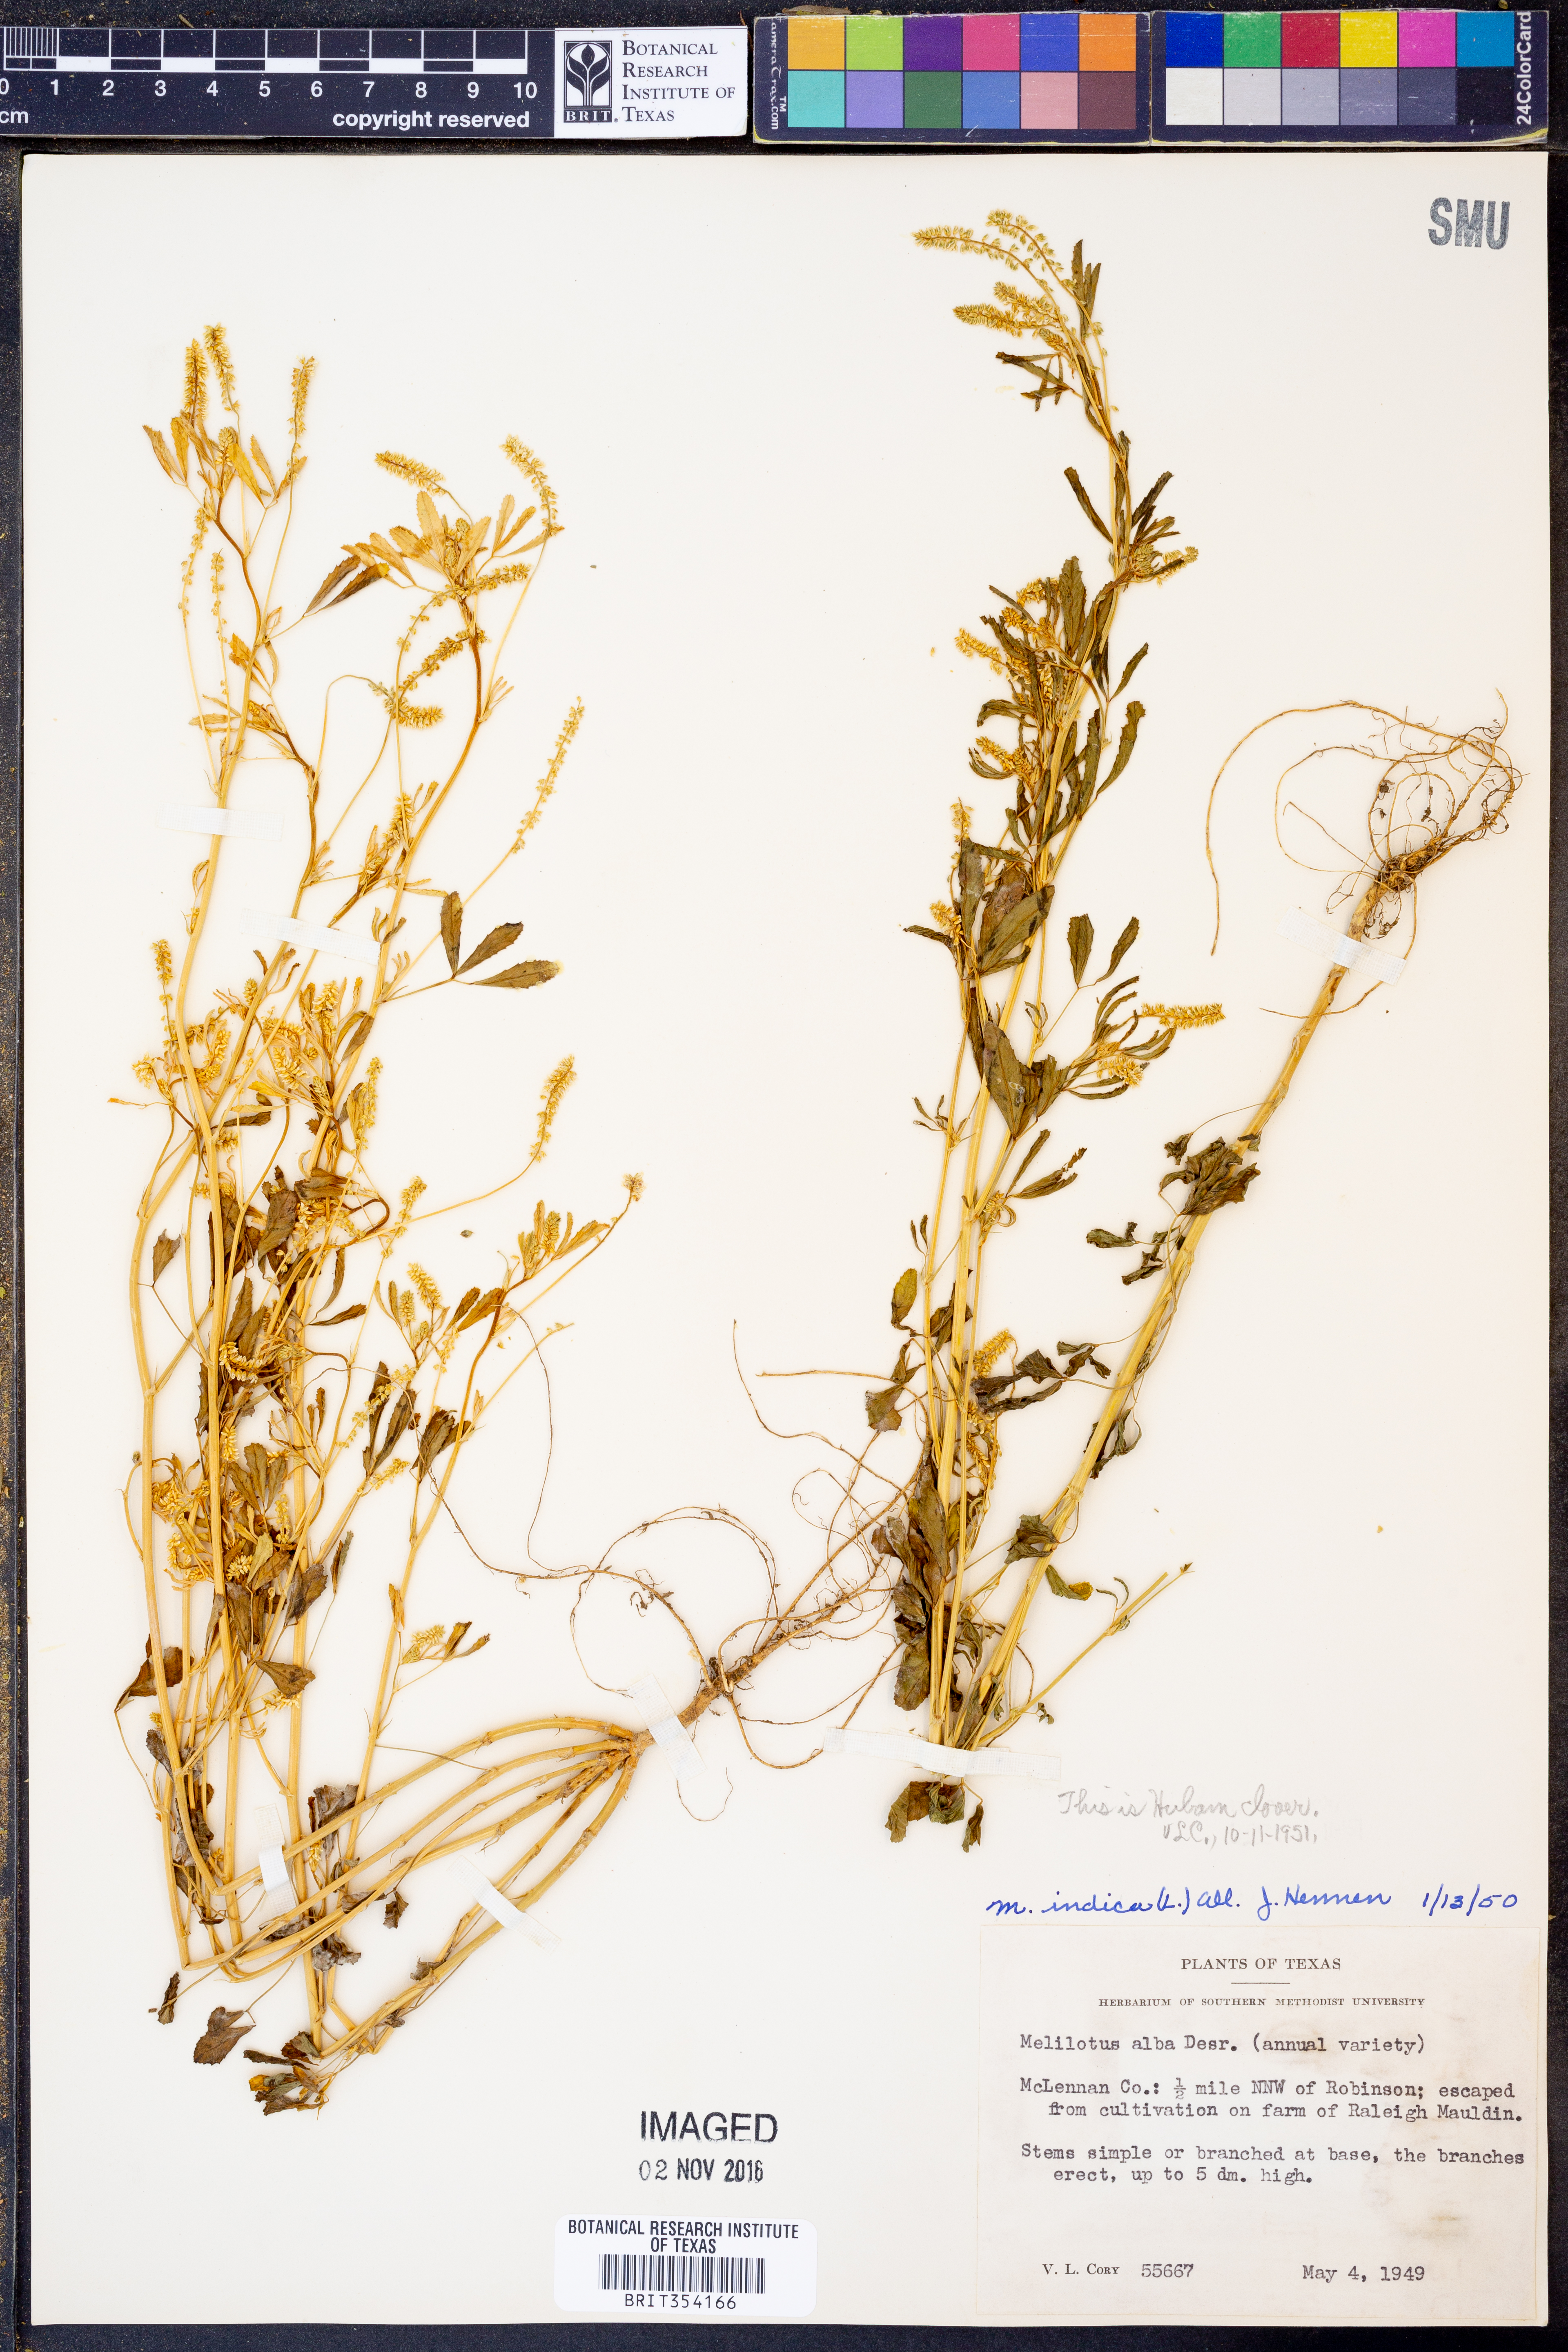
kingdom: Plantae
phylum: Tracheophyta
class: Magnoliopsida
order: Fabales
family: Fabaceae
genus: Melilotus
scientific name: Melilotus indicus
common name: Small melilot
